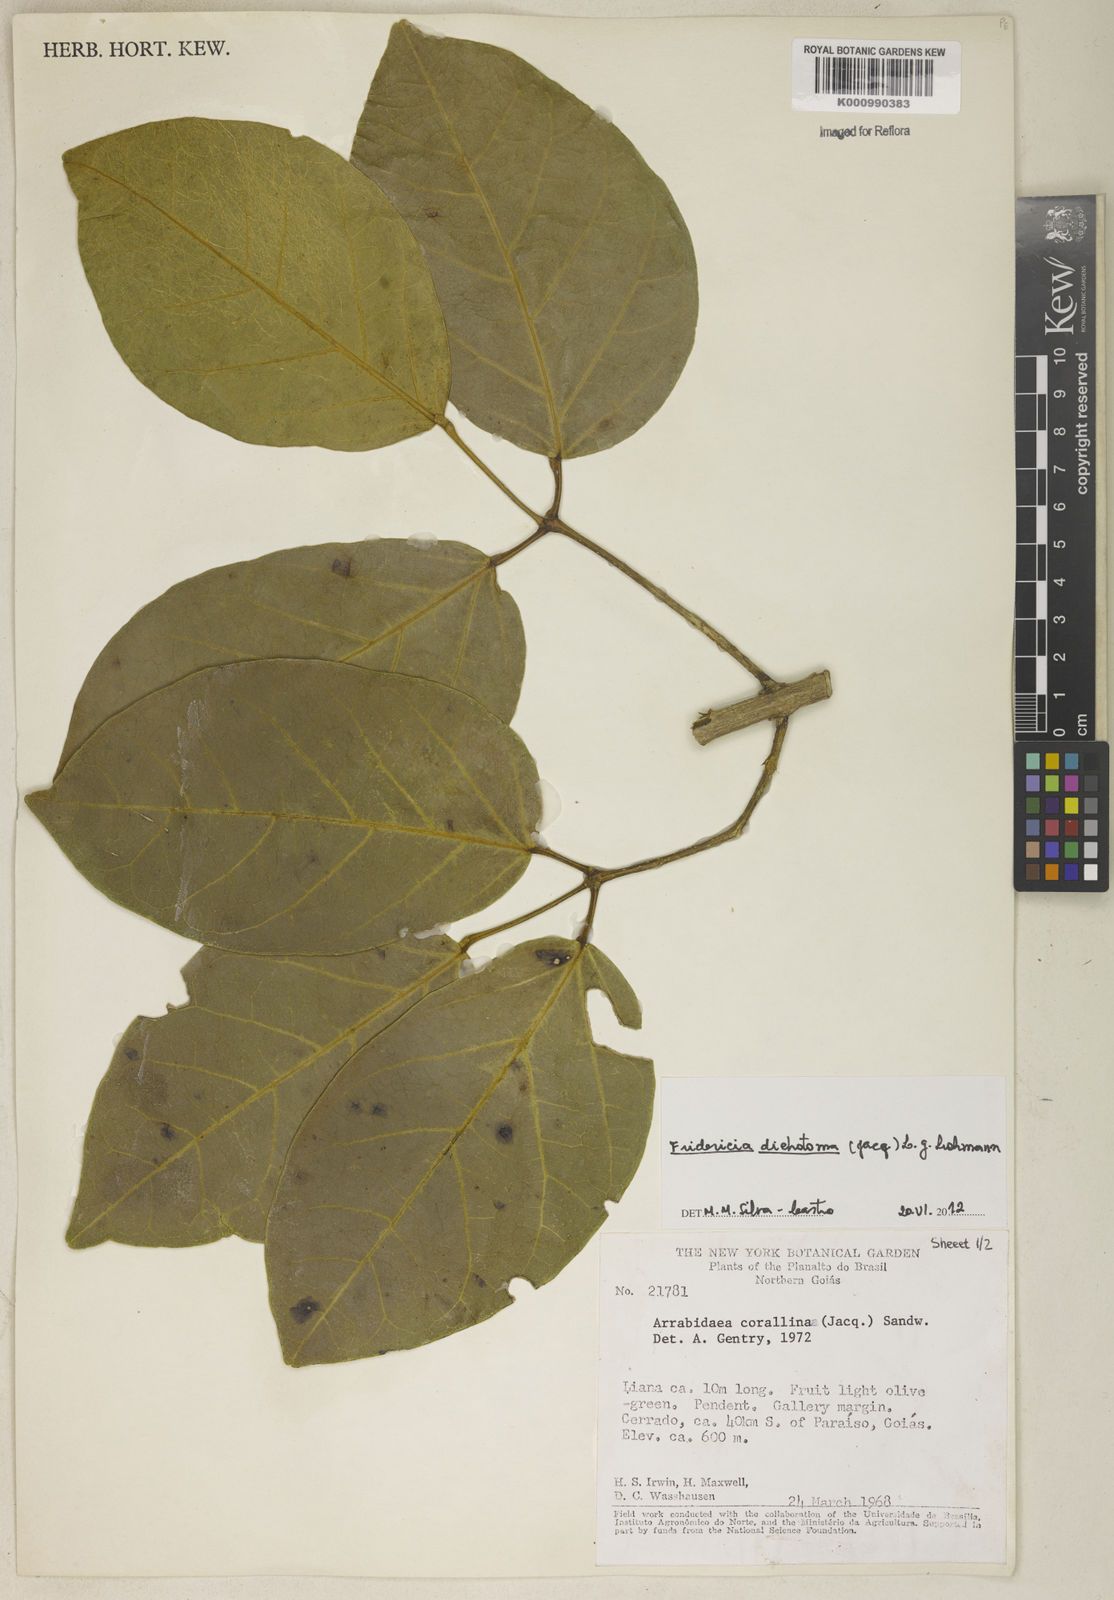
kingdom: Plantae
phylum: Tracheophyta
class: Magnoliopsida
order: Lamiales
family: Bignoniaceae
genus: Tanaecium
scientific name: Tanaecium dichotomum
